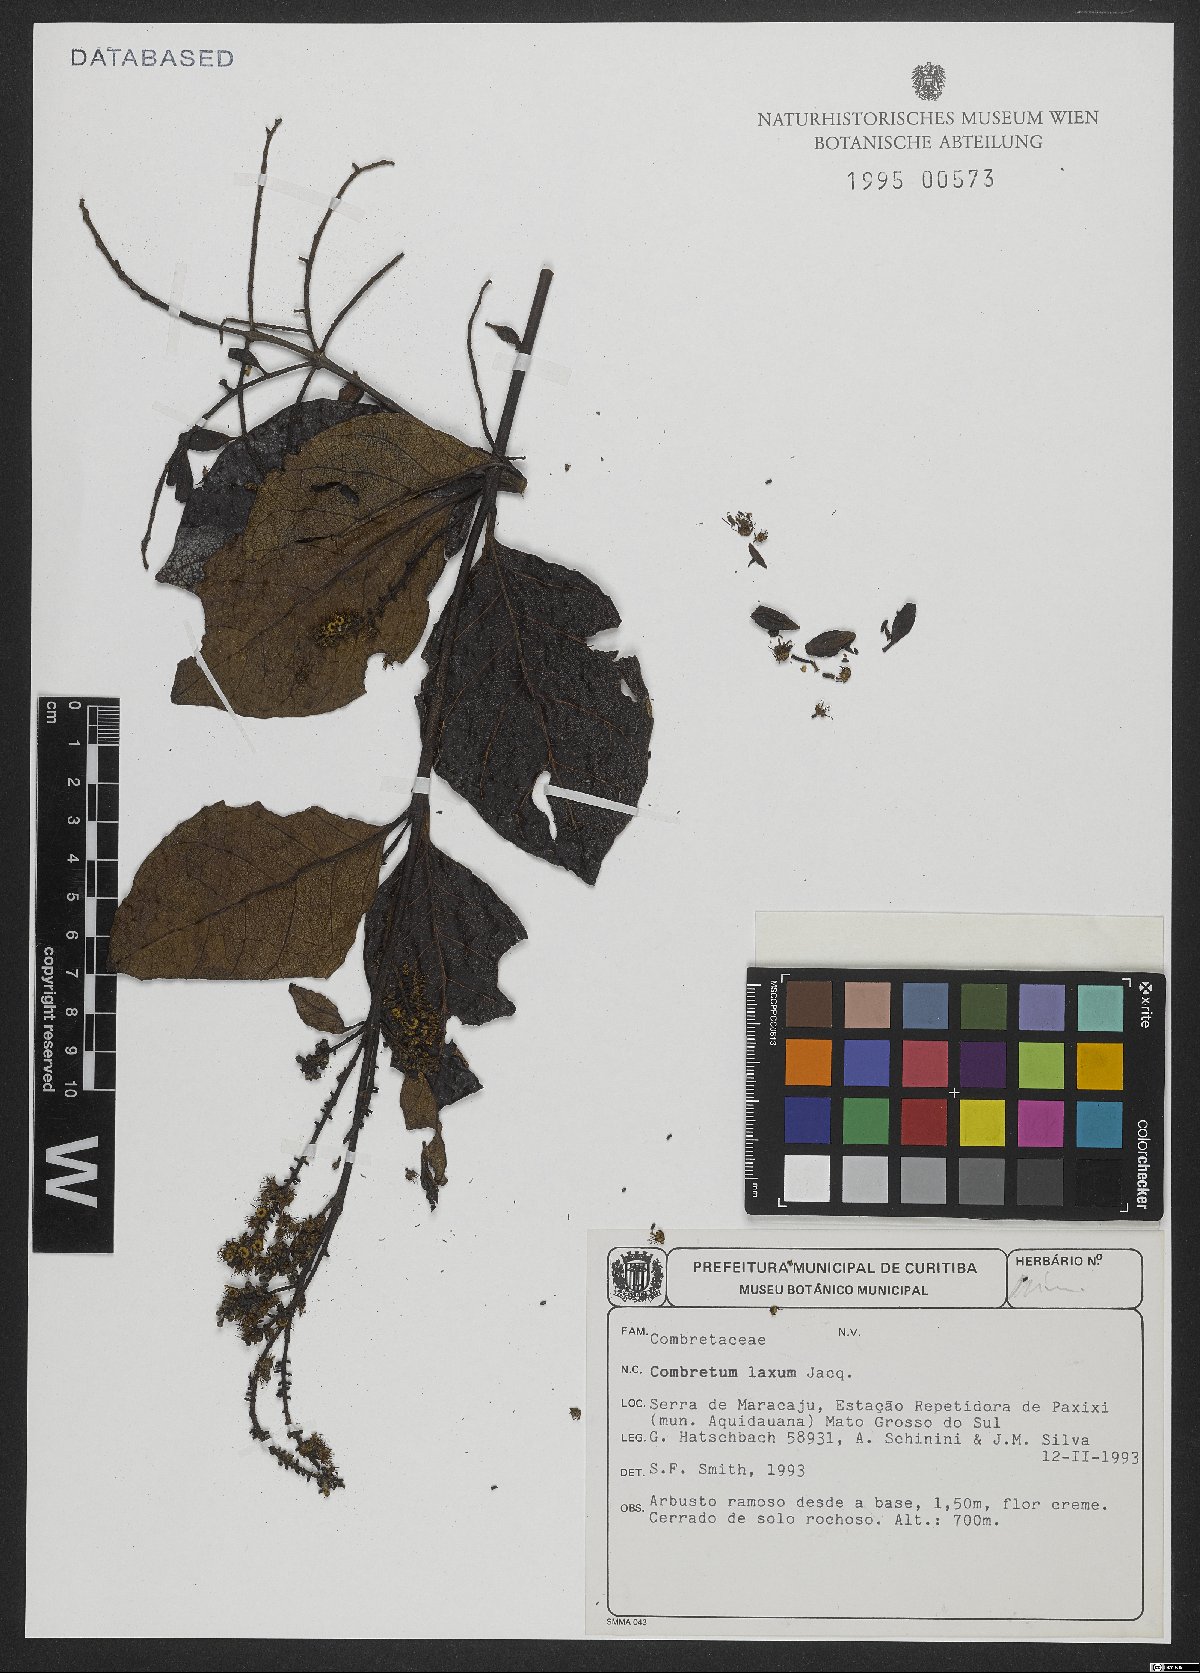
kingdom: Plantae
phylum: Tracheophyta
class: Magnoliopsida
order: Myrtales
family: Combretaceae
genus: Combretum
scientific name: Combretum laxum
